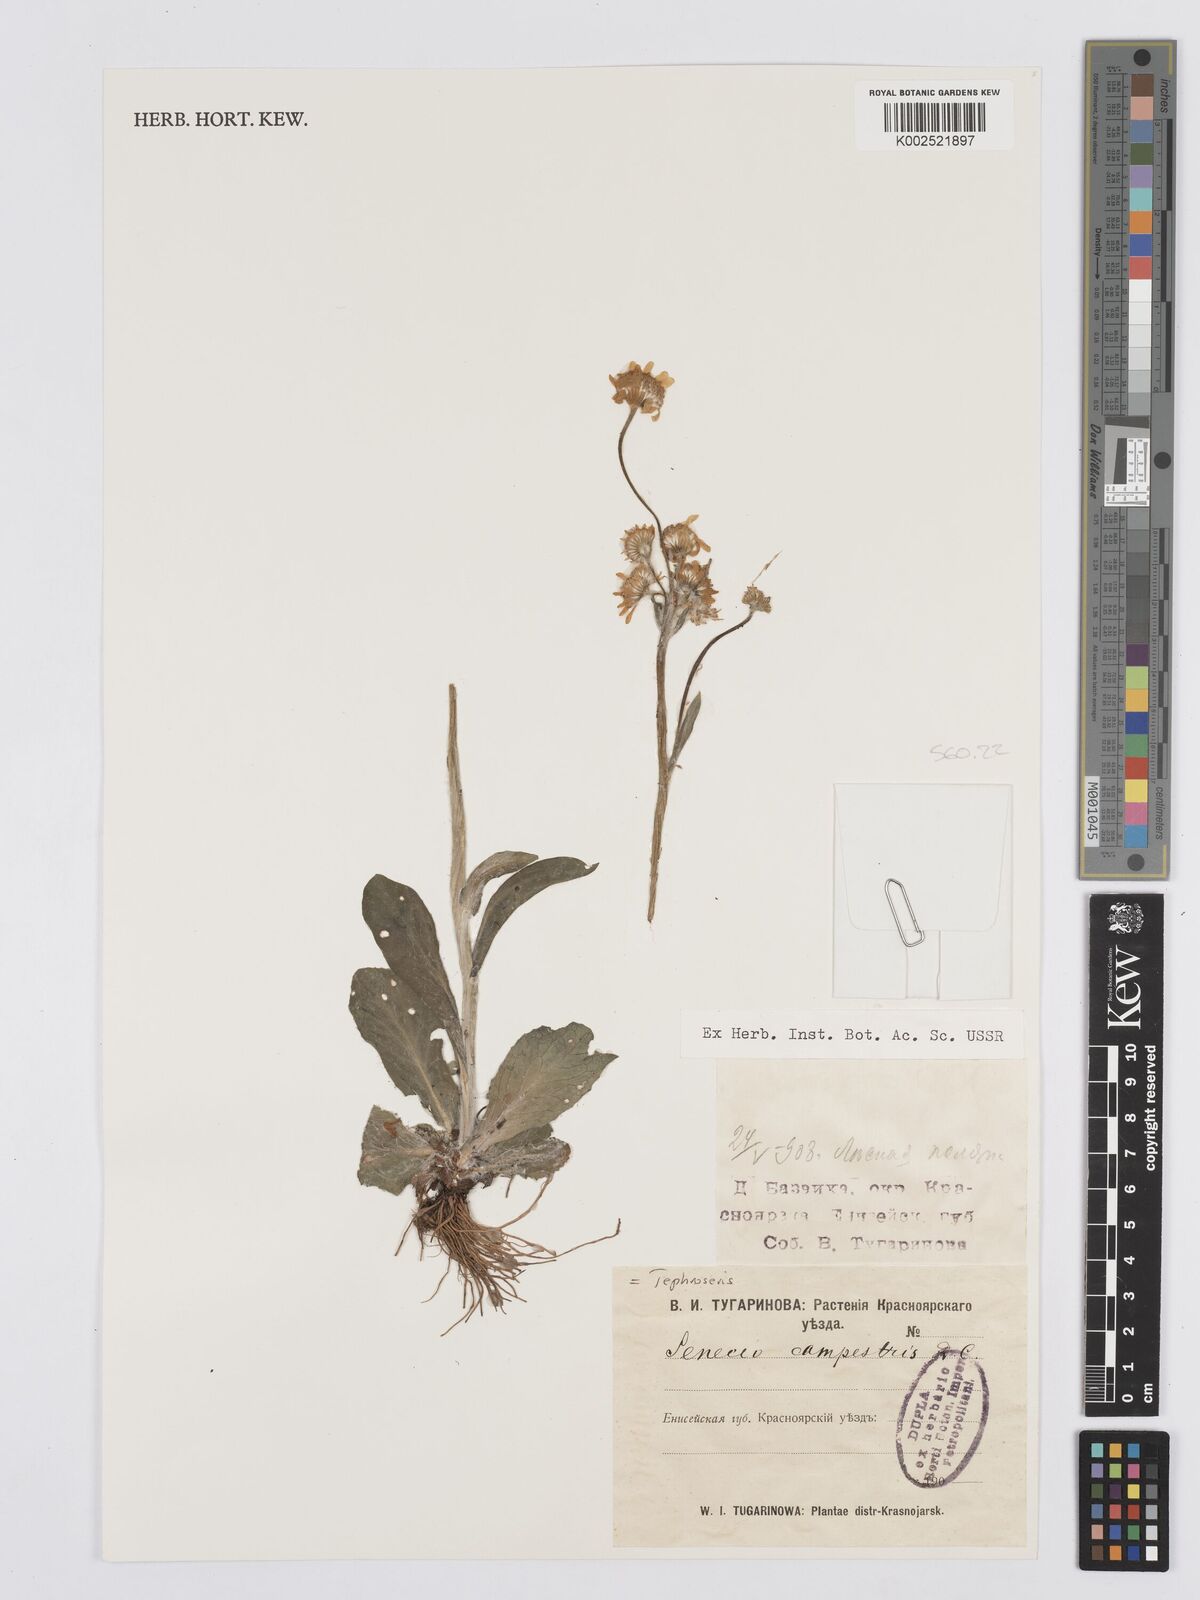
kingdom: Plantae
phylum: Tracheophyta
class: Magnoliopsida
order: Asterales
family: Asteraceae
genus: Tephroseris
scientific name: Tephroseris integrifolia
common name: Field fleawort
